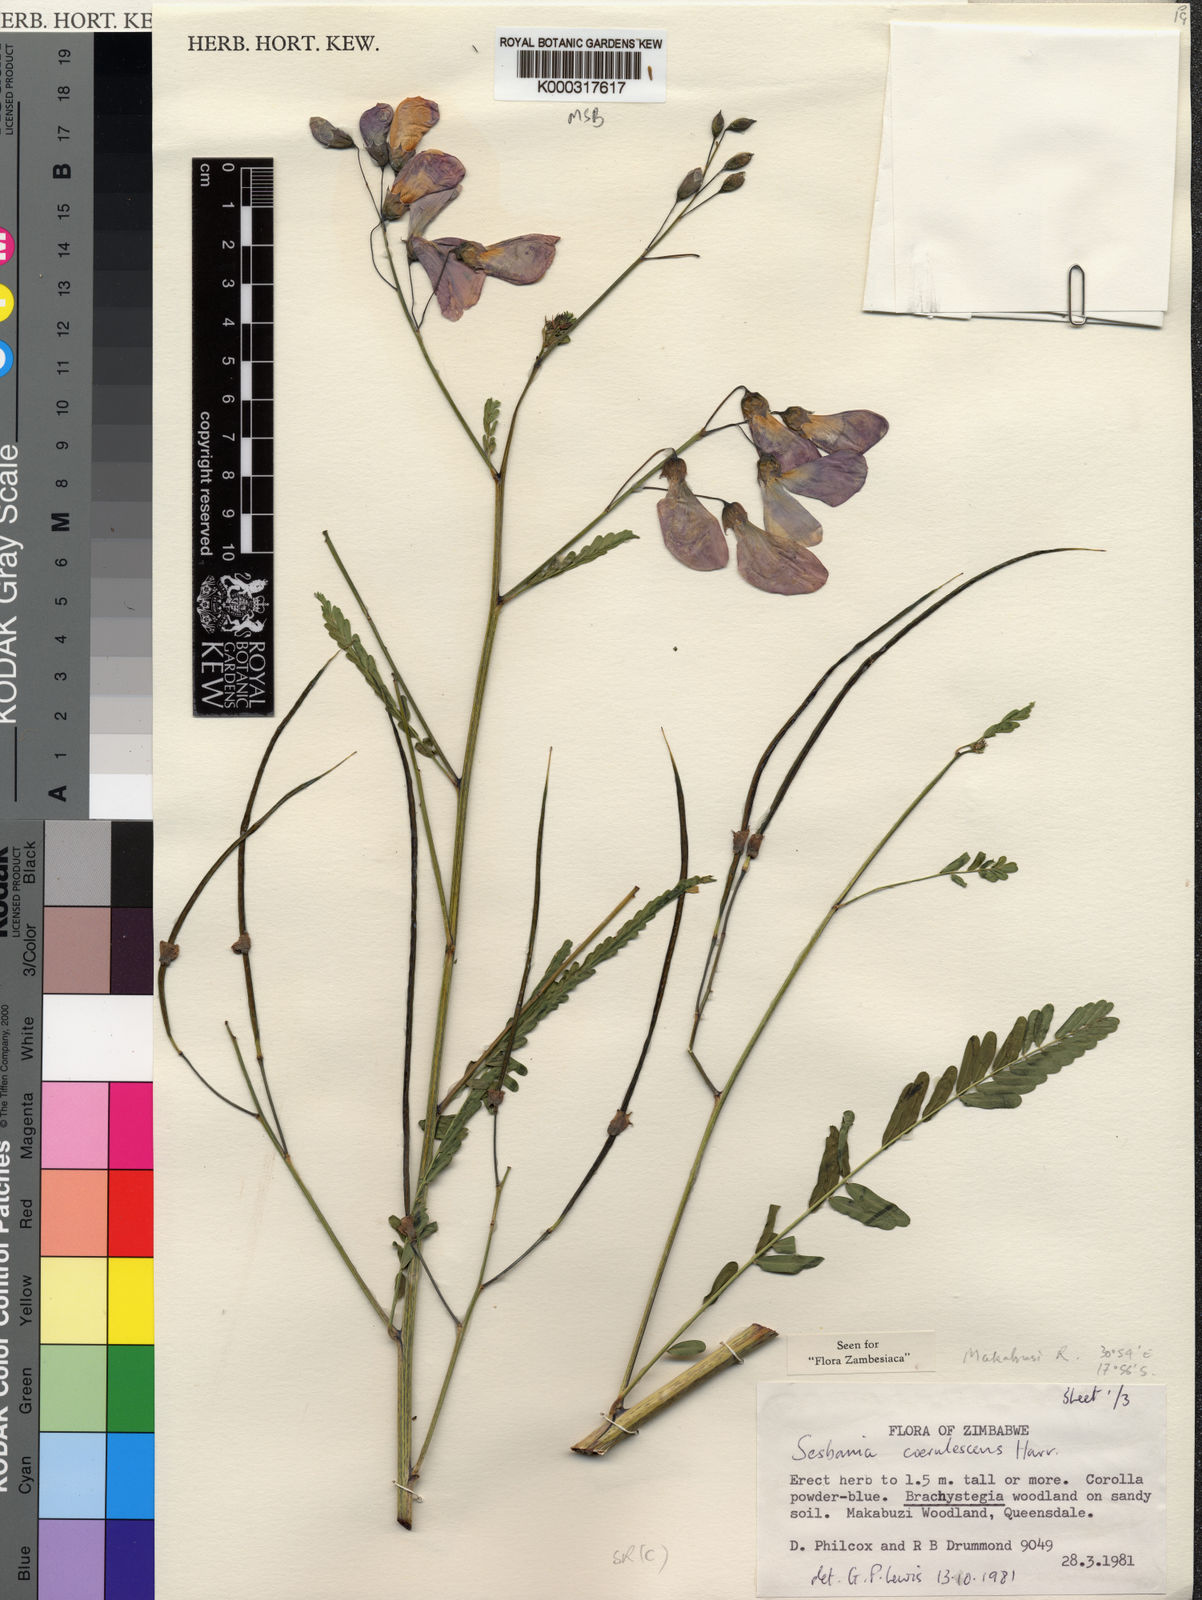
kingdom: Plantae
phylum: Tracheophyta
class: Magnoliopsida
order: Fabales
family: Fabaceae
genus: Sesbania
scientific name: Sesbania coerulescens
